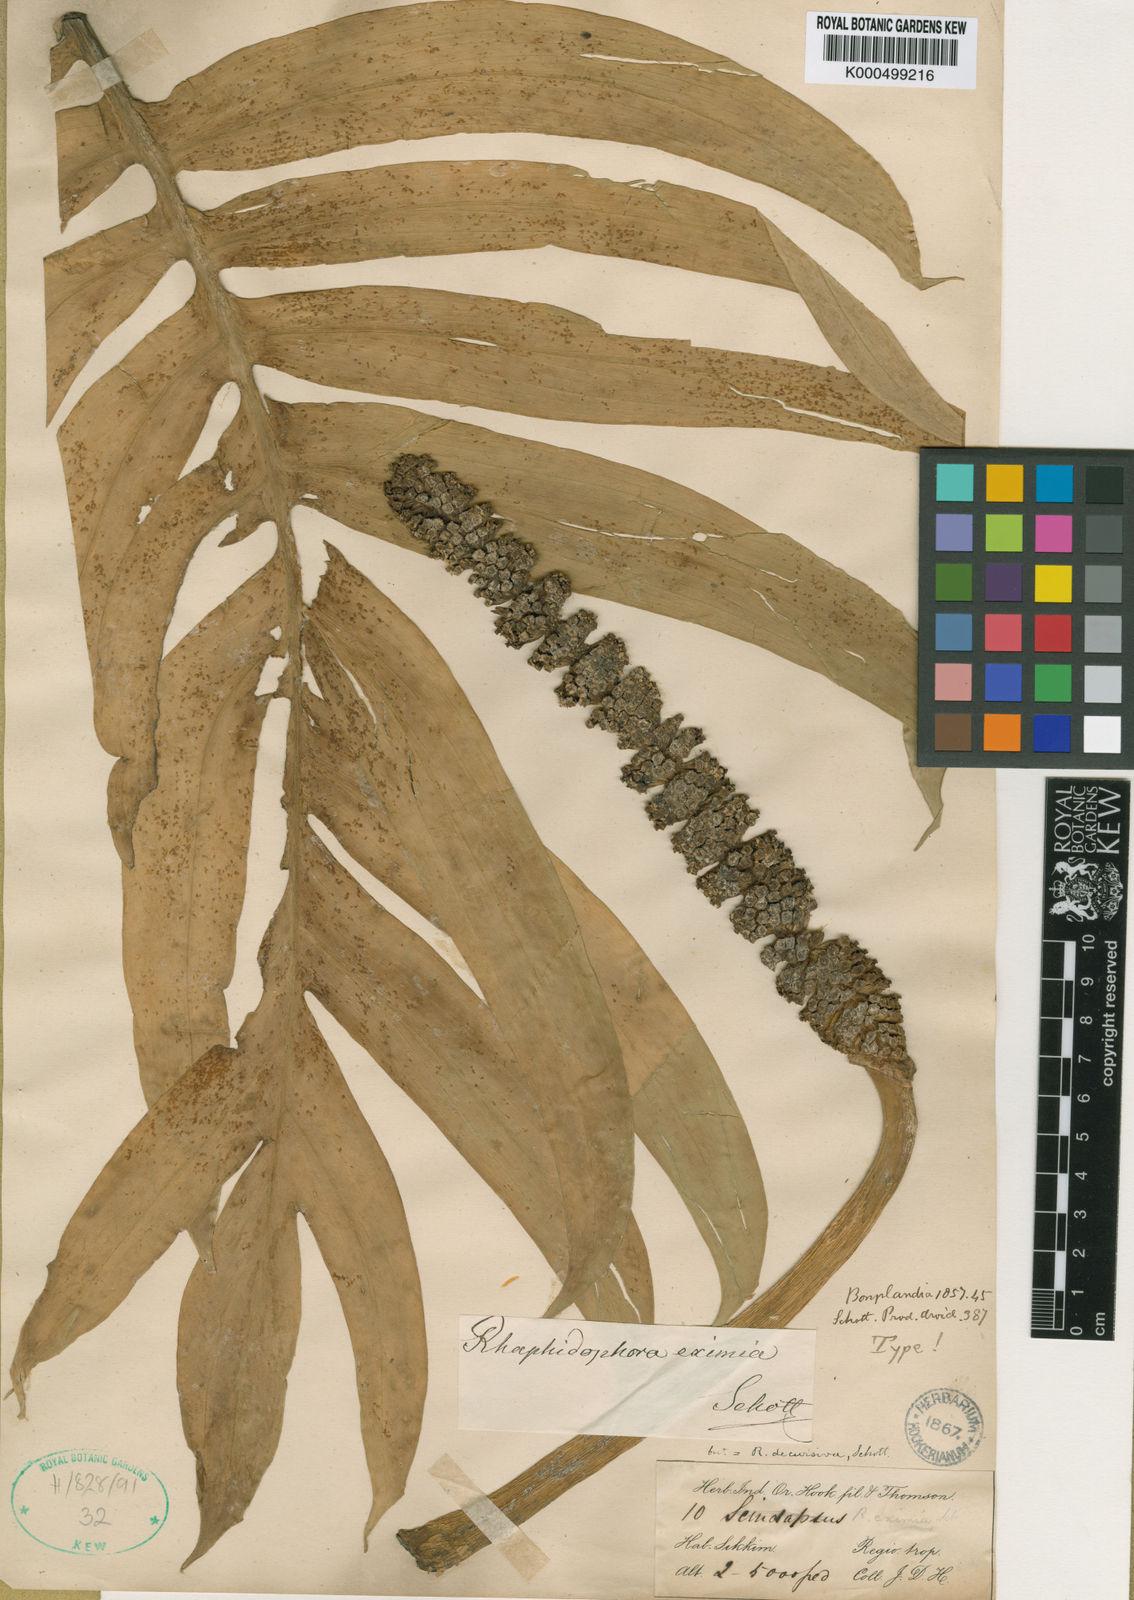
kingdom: Plantae
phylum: Tracheophyta
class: Liliopsida
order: Alismatales
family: Araceae
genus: Rhaphidophora
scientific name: Rhaphidophora decursiva
